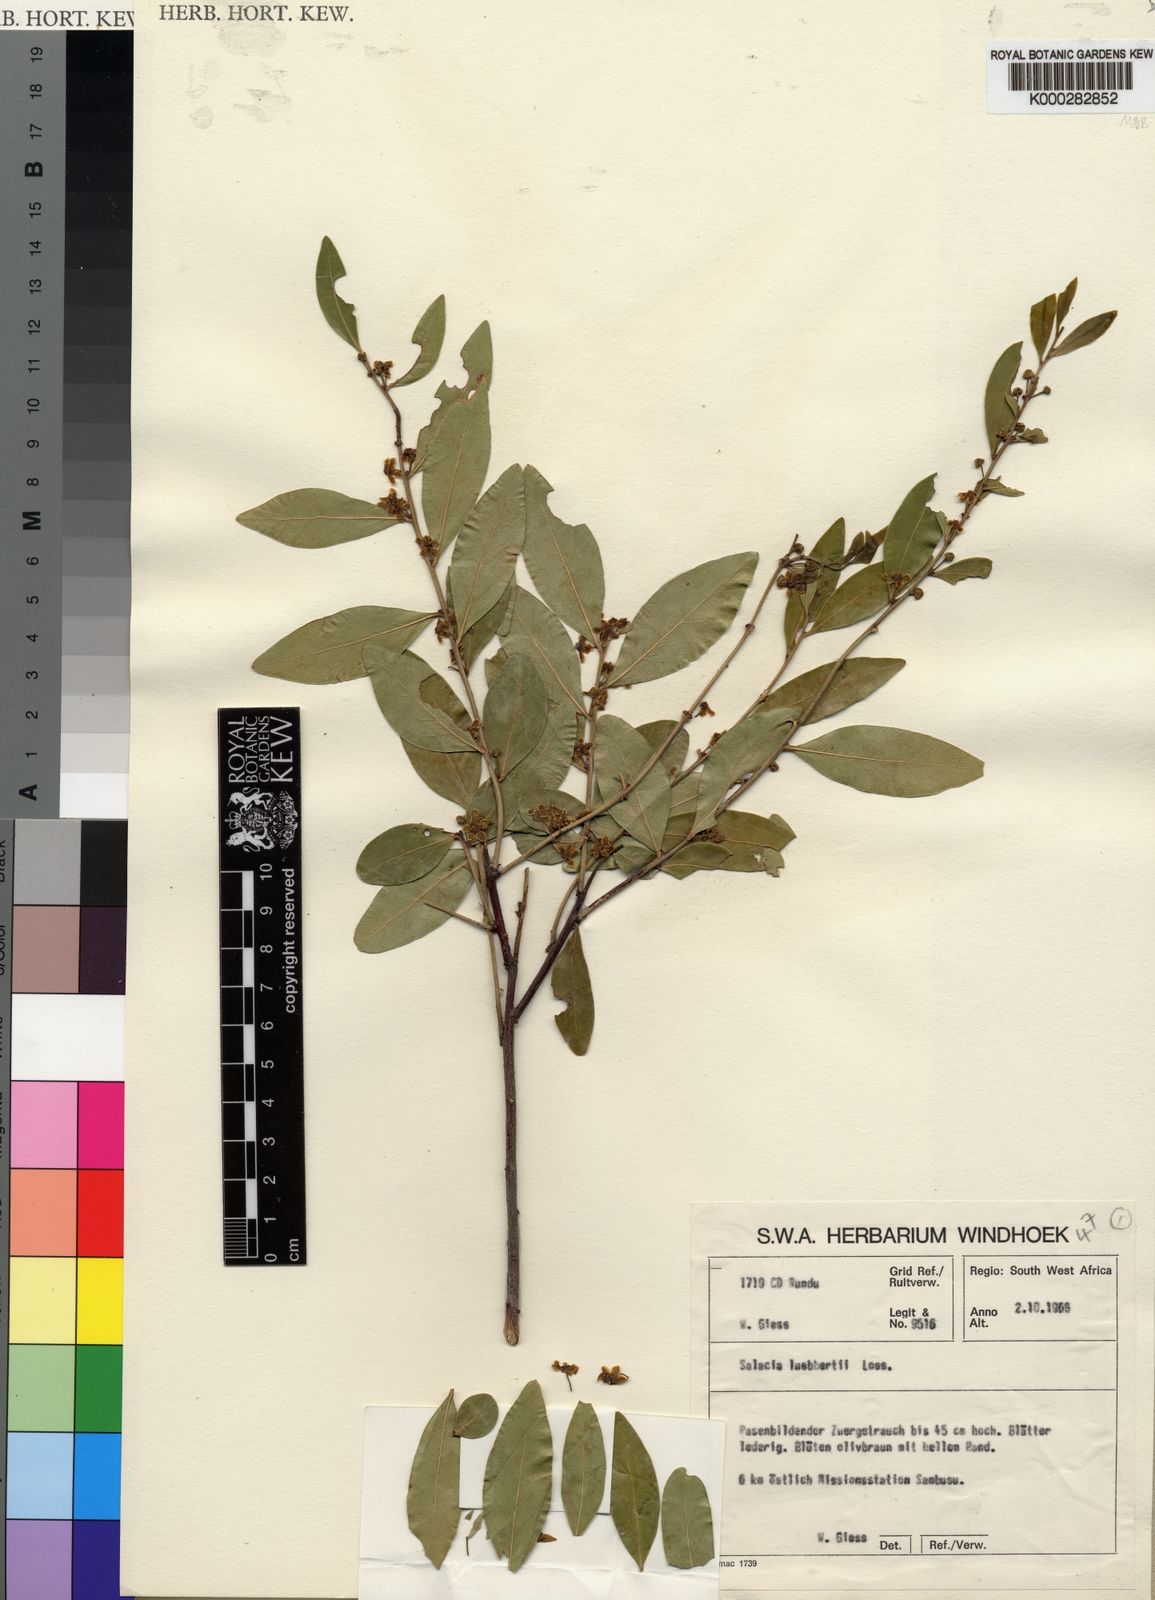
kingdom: Plantae
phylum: Tracheophyta
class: Magnoliopsida
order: Celastrales
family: Celastraceae
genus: Salacia
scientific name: Salacia luebbertii
